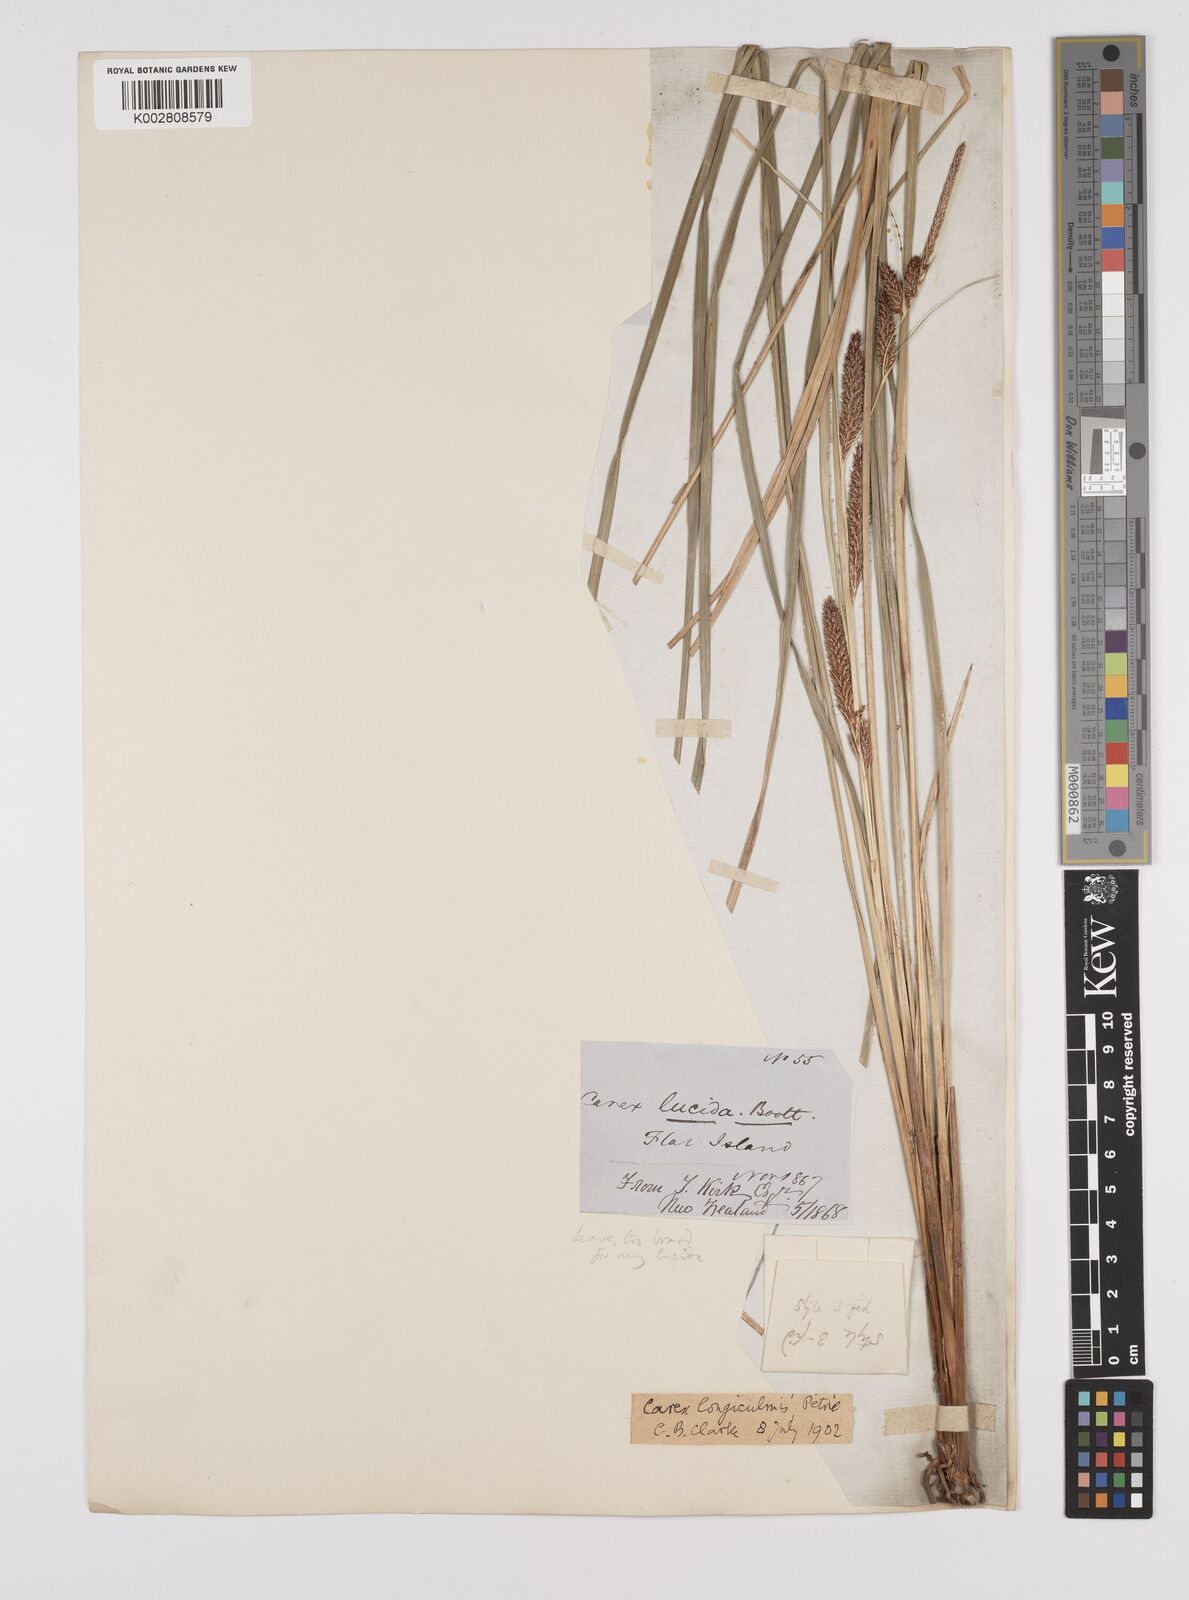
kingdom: Plantae
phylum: Tracheophyta
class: Liliopsida
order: Poales
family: Cyperaceae
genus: Carex
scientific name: Carex flagellifera
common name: Glen murray tussock
